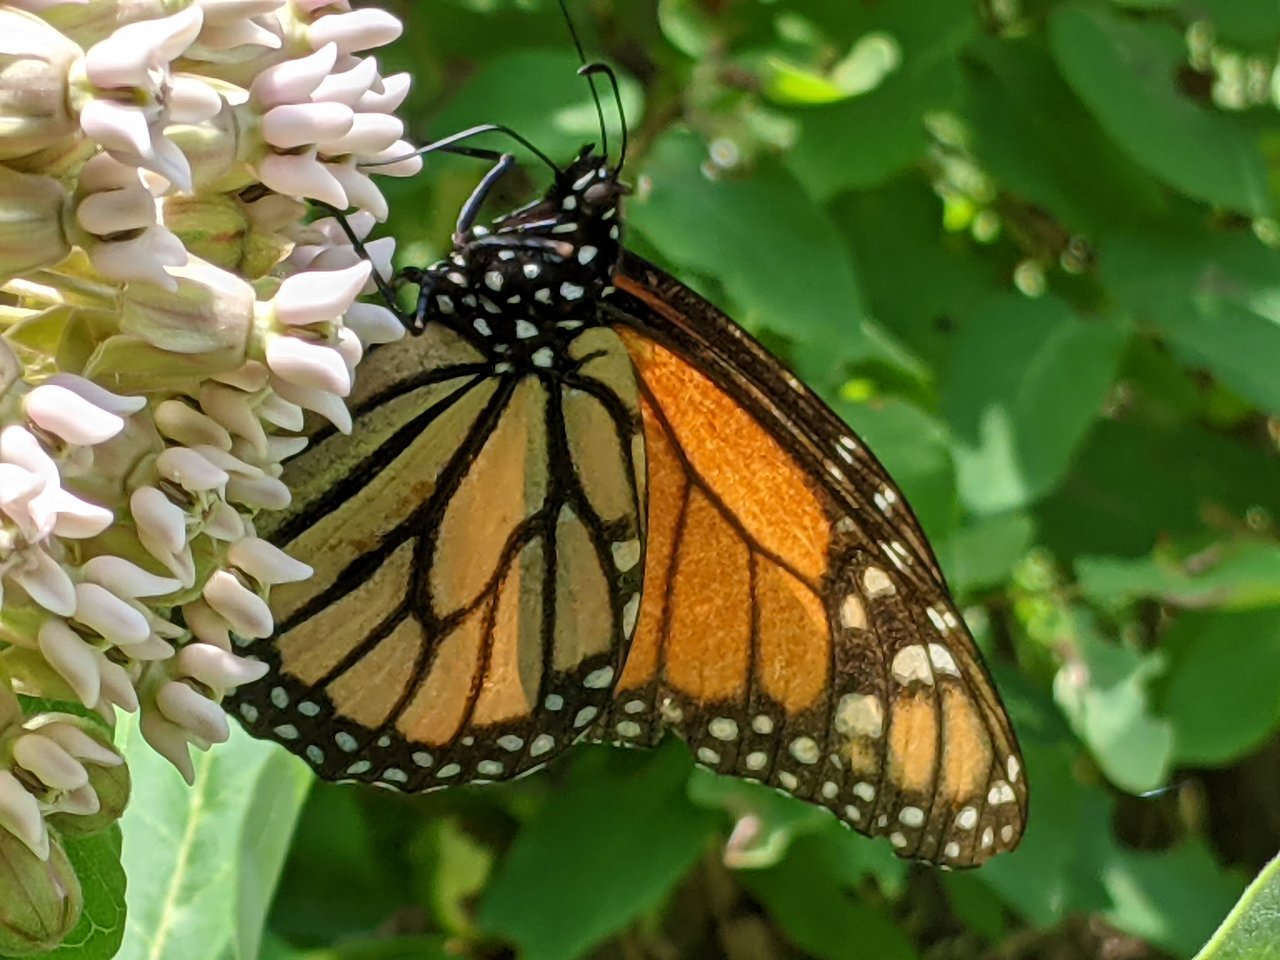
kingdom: Animalia
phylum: Arthropoda
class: Insecta
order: Lepidoptera
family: Nymphalidae
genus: Danaus
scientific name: Danaus plexippus
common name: Monarch
